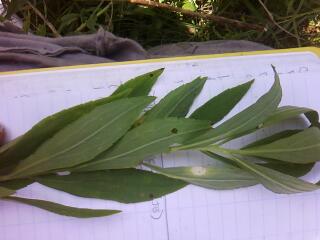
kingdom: Plantae
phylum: Tracheophyta
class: Liliopsida
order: Poales
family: Poaceae
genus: Phalaris
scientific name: Phalaris arundinacea
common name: Reed canary-grass
